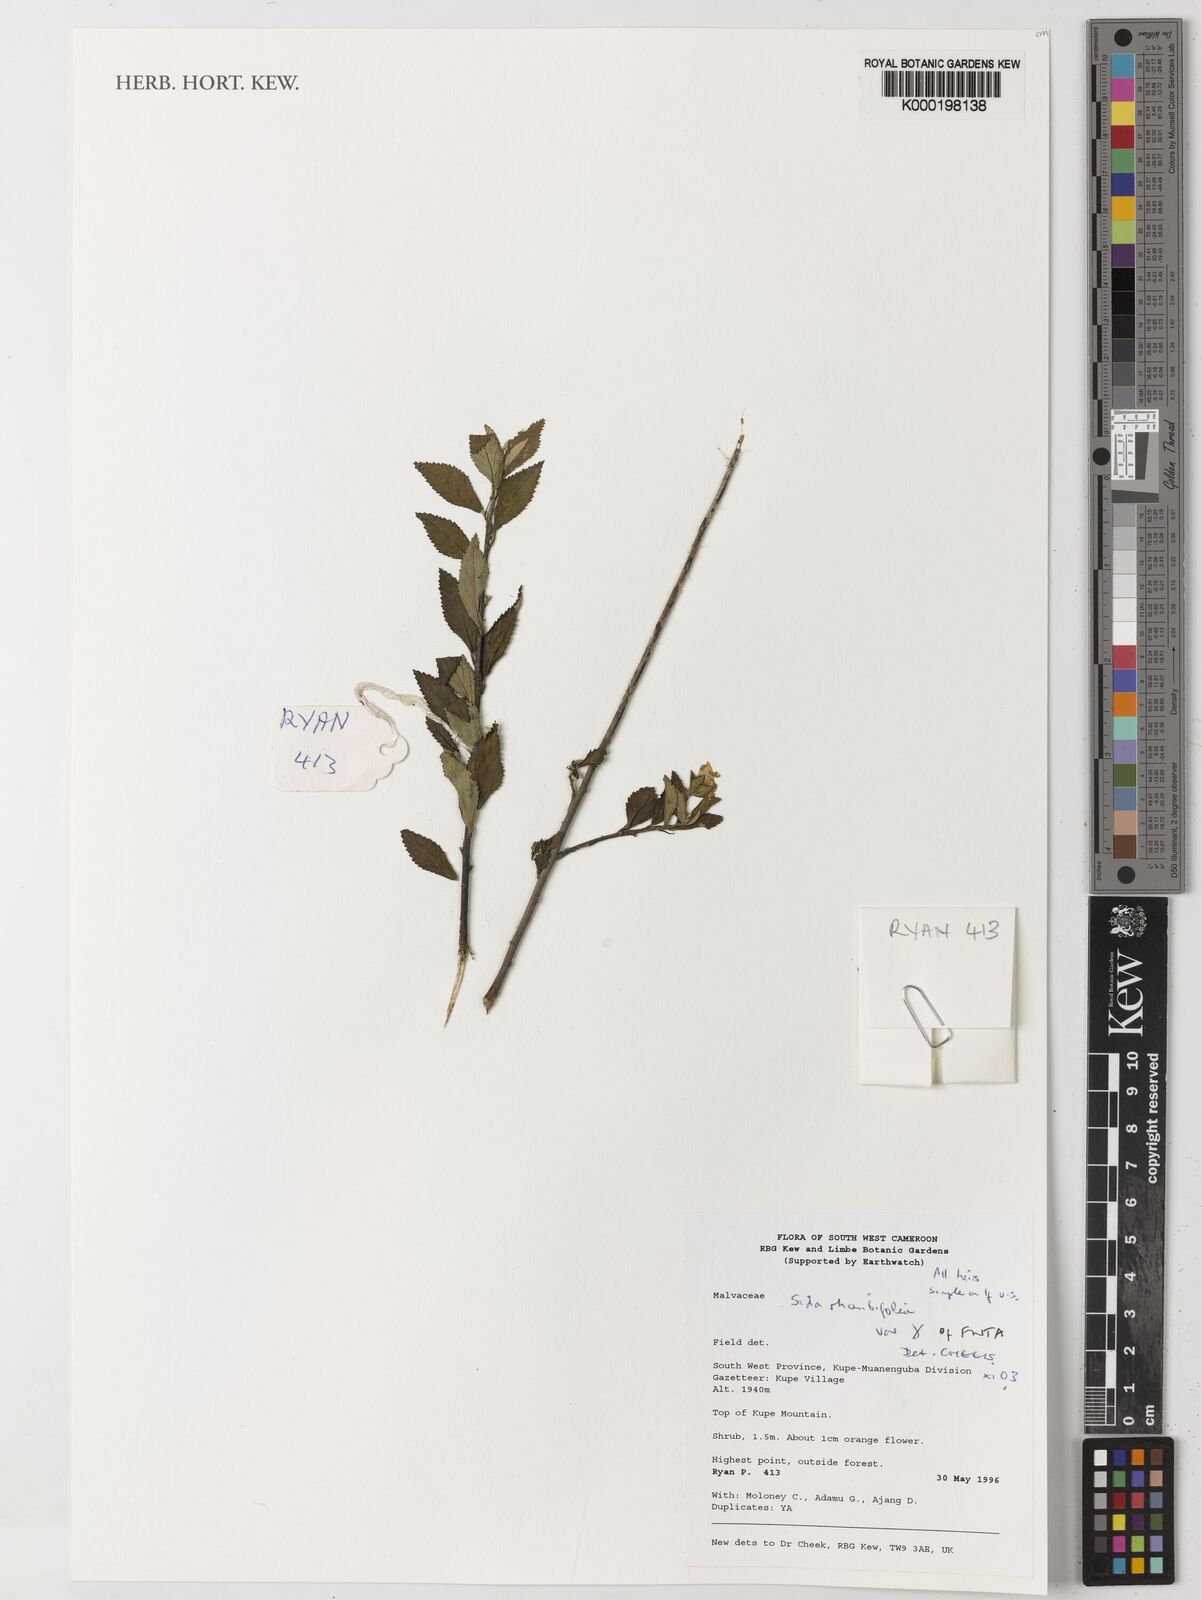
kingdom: Plantae
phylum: Tracheophyta
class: Magnoliopsida
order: Malvales
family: Malvaceae
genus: Sida
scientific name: Sida rhombifolia
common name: Queensland-hemp
